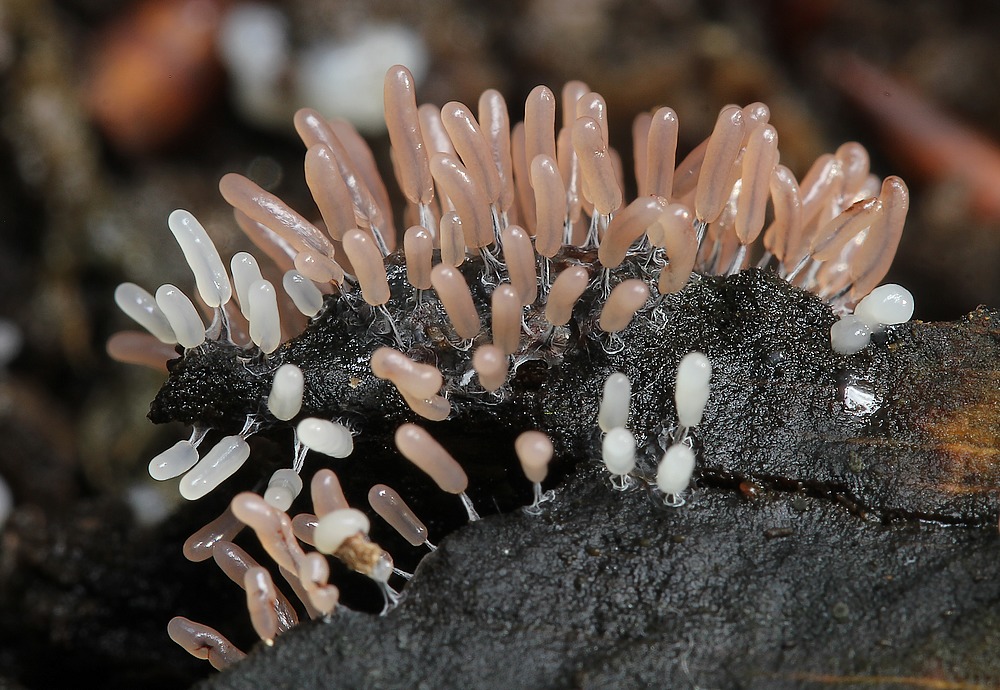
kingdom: Protozoa
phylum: Mycetozoa
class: Myxomycetes
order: Stemonitidales
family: Stemonitidaceae
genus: Stemonitopsis
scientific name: Stemonitopsis typhina
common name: skinnende støvkølle
